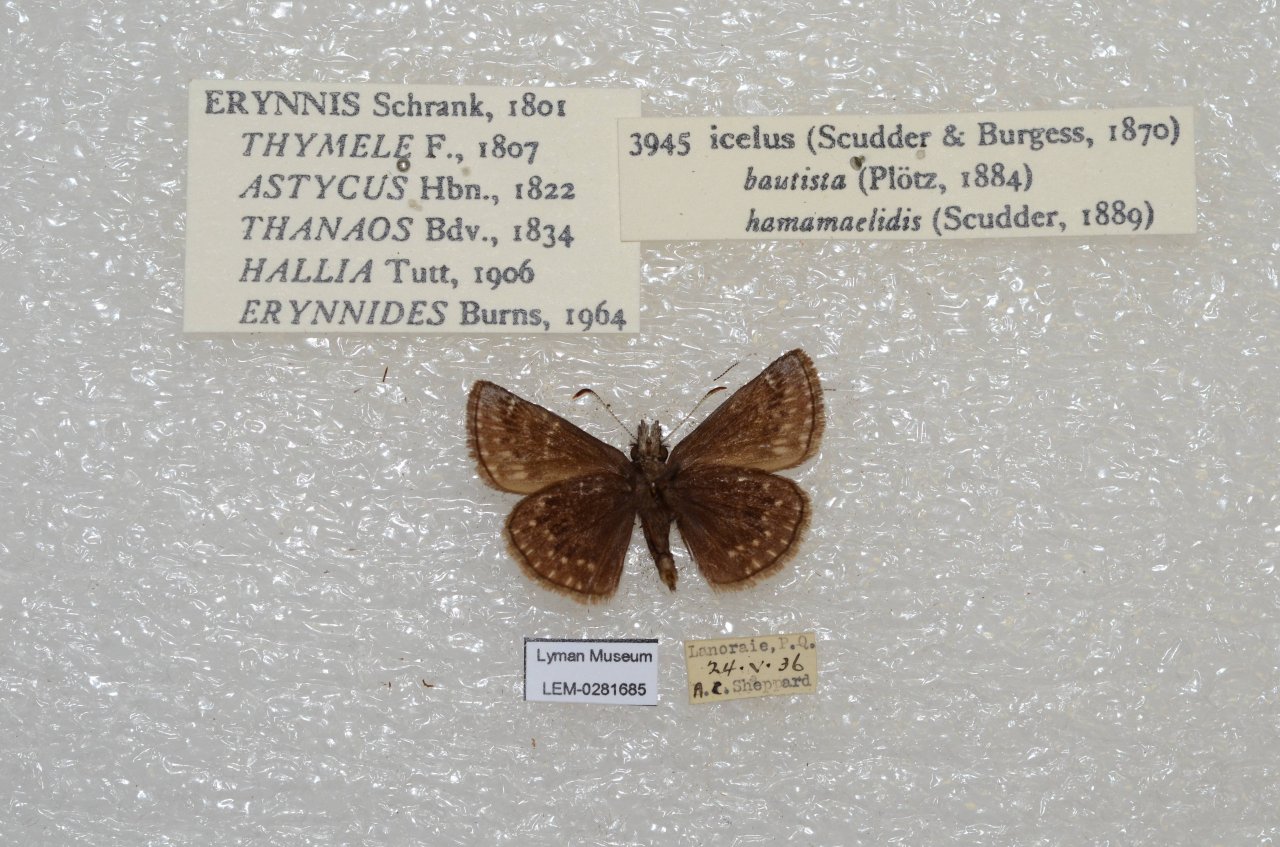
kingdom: Animalia
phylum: Arthropoda
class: Insecta
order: Lepidoptera
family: Hesperiidae
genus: Erynnis
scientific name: Erynnis icelus
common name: Dreamy Duskywing
